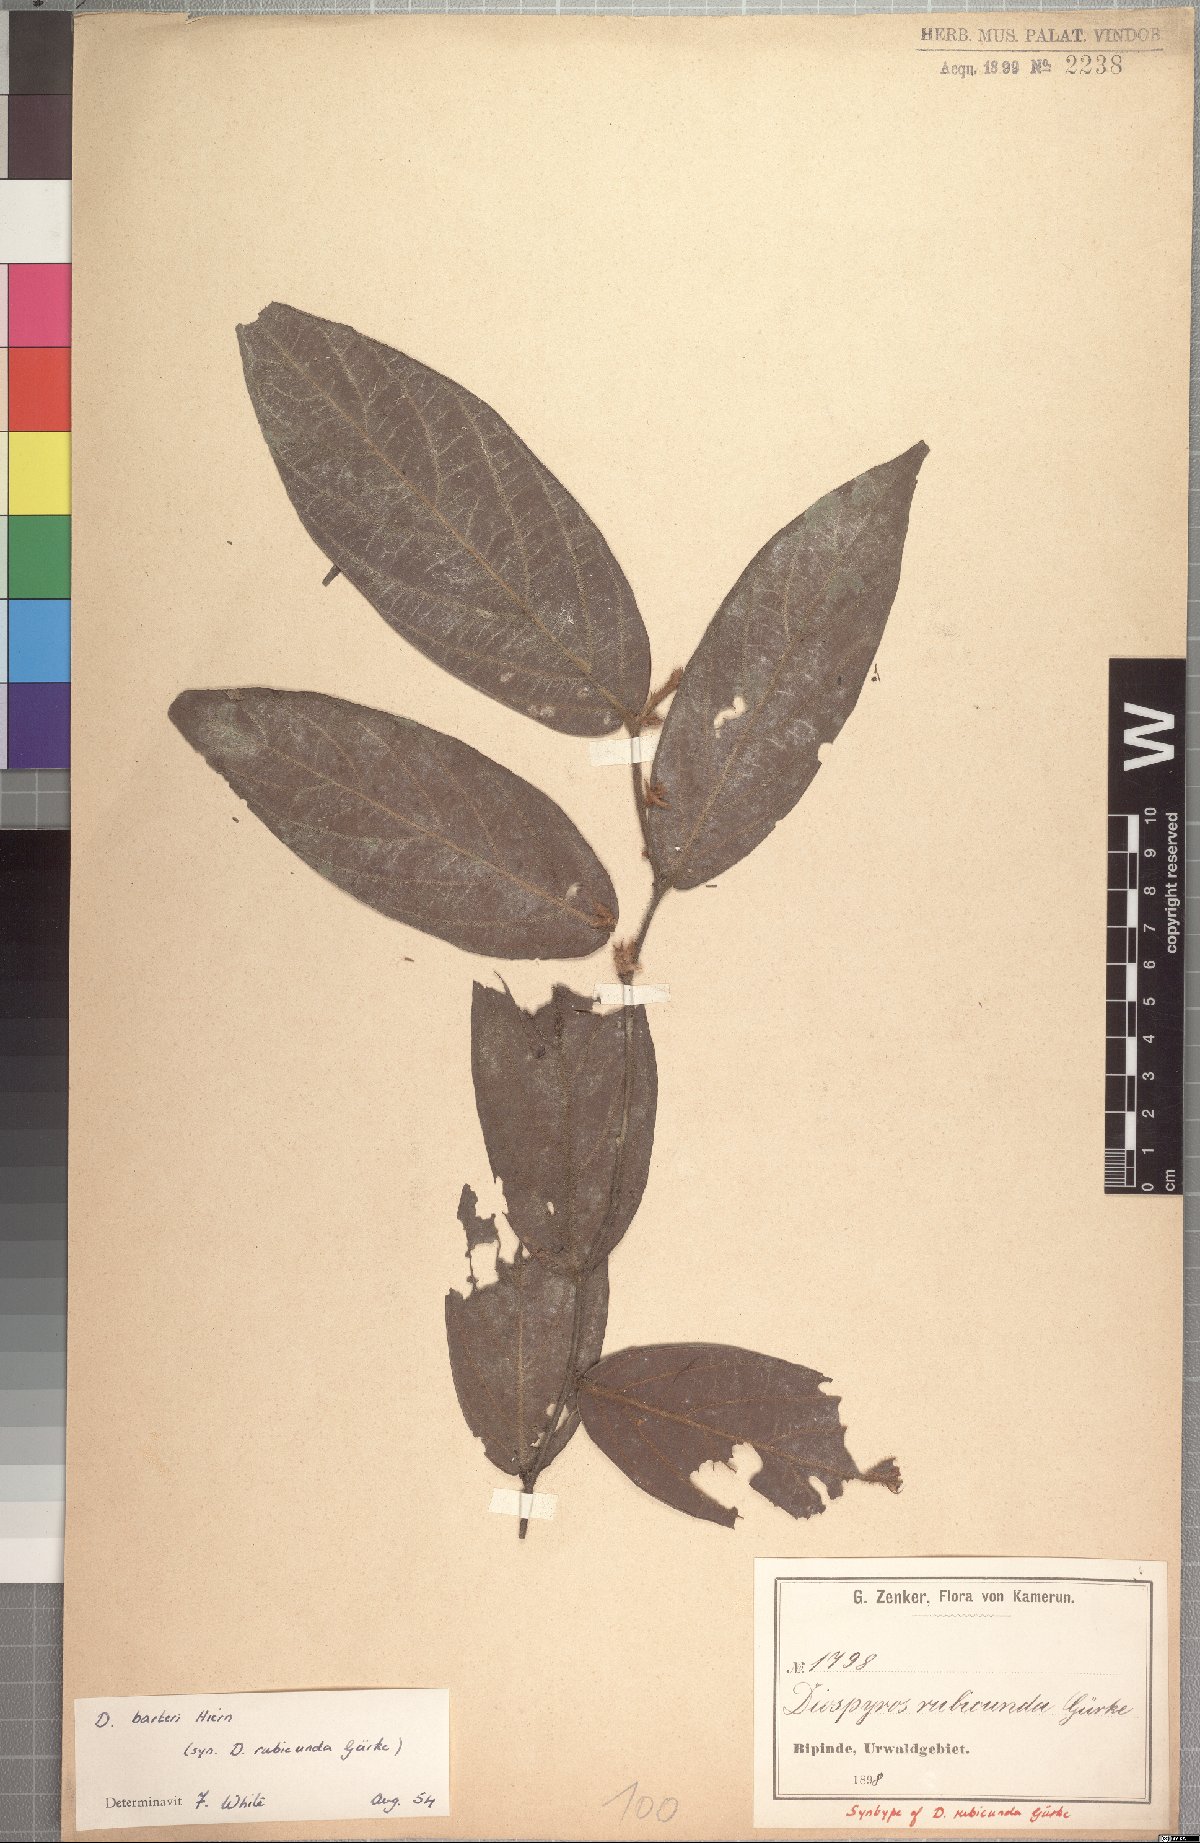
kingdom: Plantae
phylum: Tracheophyta
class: Magnoliopsida
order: Ericales
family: Ebenaceae
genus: Diospyros
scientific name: Diospyros rubicunda
